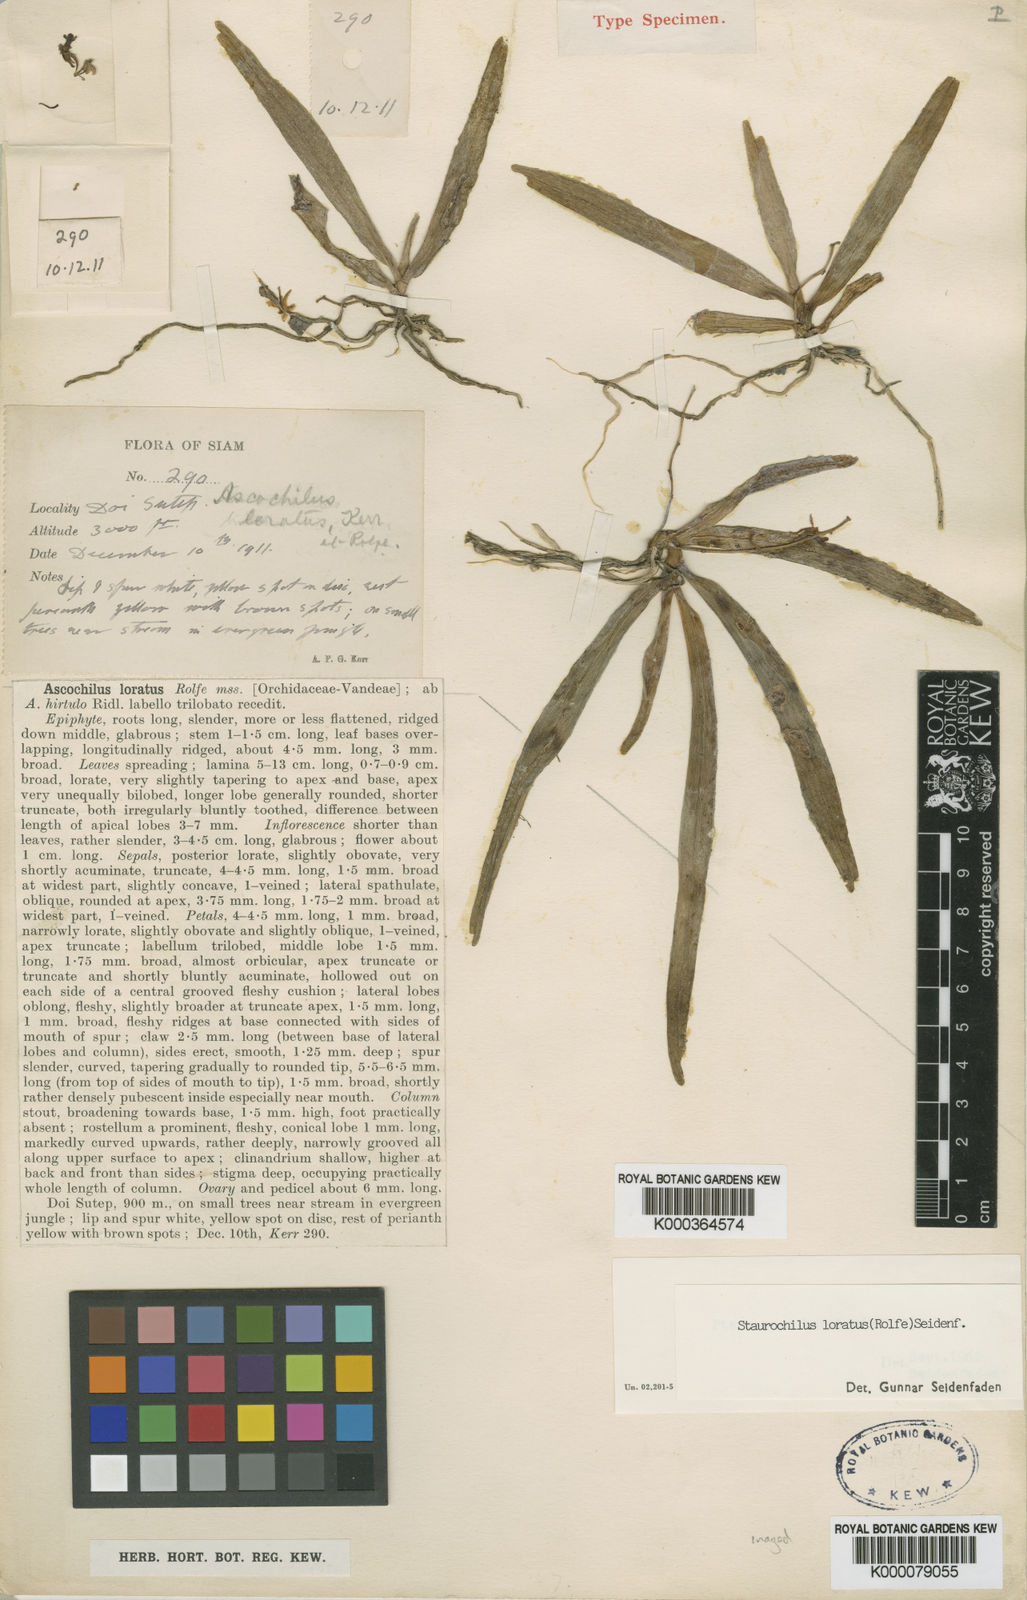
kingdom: Plantae
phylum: Tracheophyta
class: Liliopsida
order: Asparagales
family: Orchidaceae
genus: Trichoglottis
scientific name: Trichoglottis lorata
